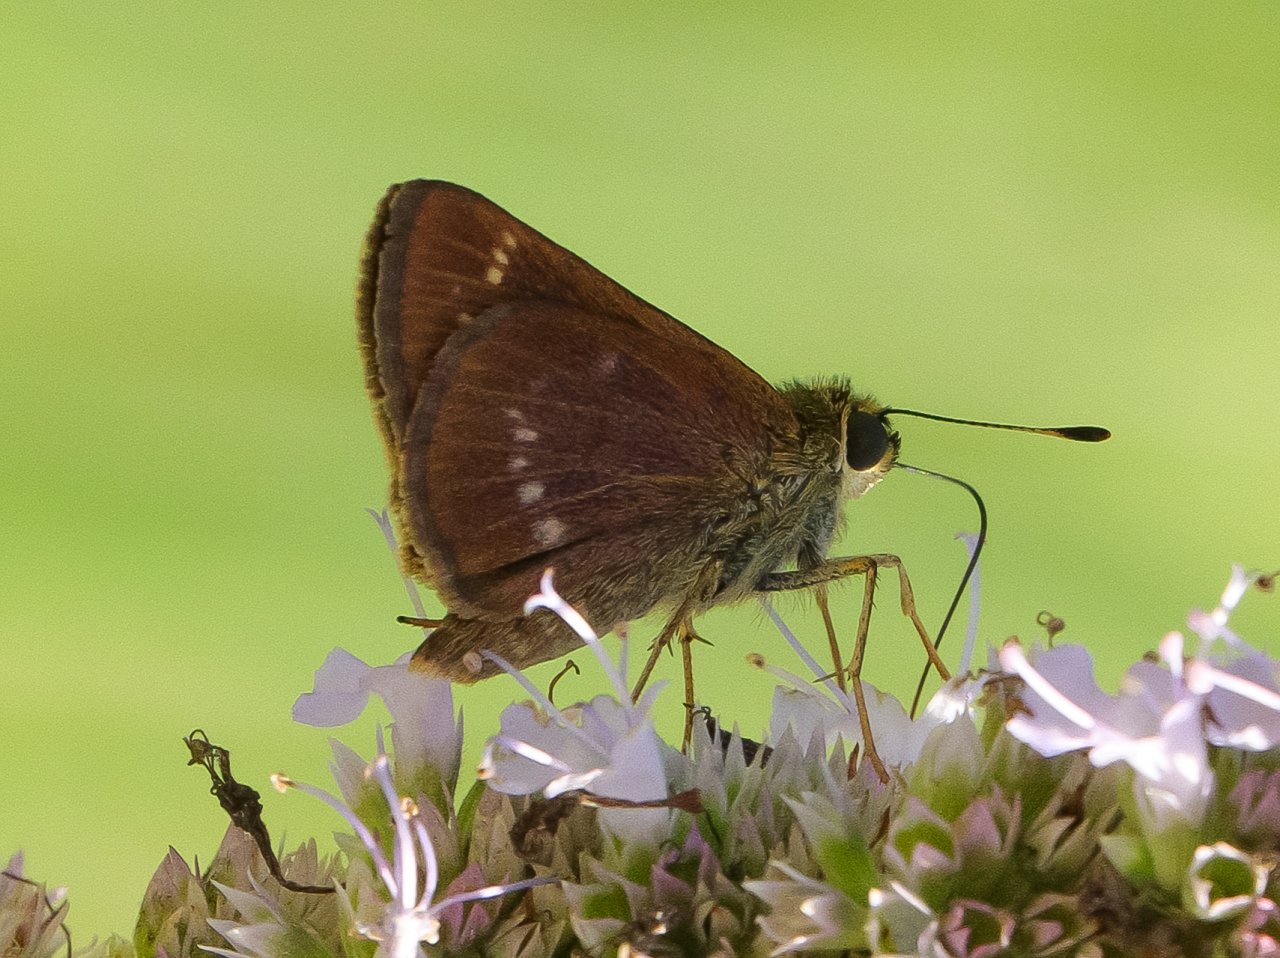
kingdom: Animalia
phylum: Arthropoda
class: Insecta
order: Lepidoptera
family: Hesperiidae
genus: Polites
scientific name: Polites
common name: Crossline Skipper
